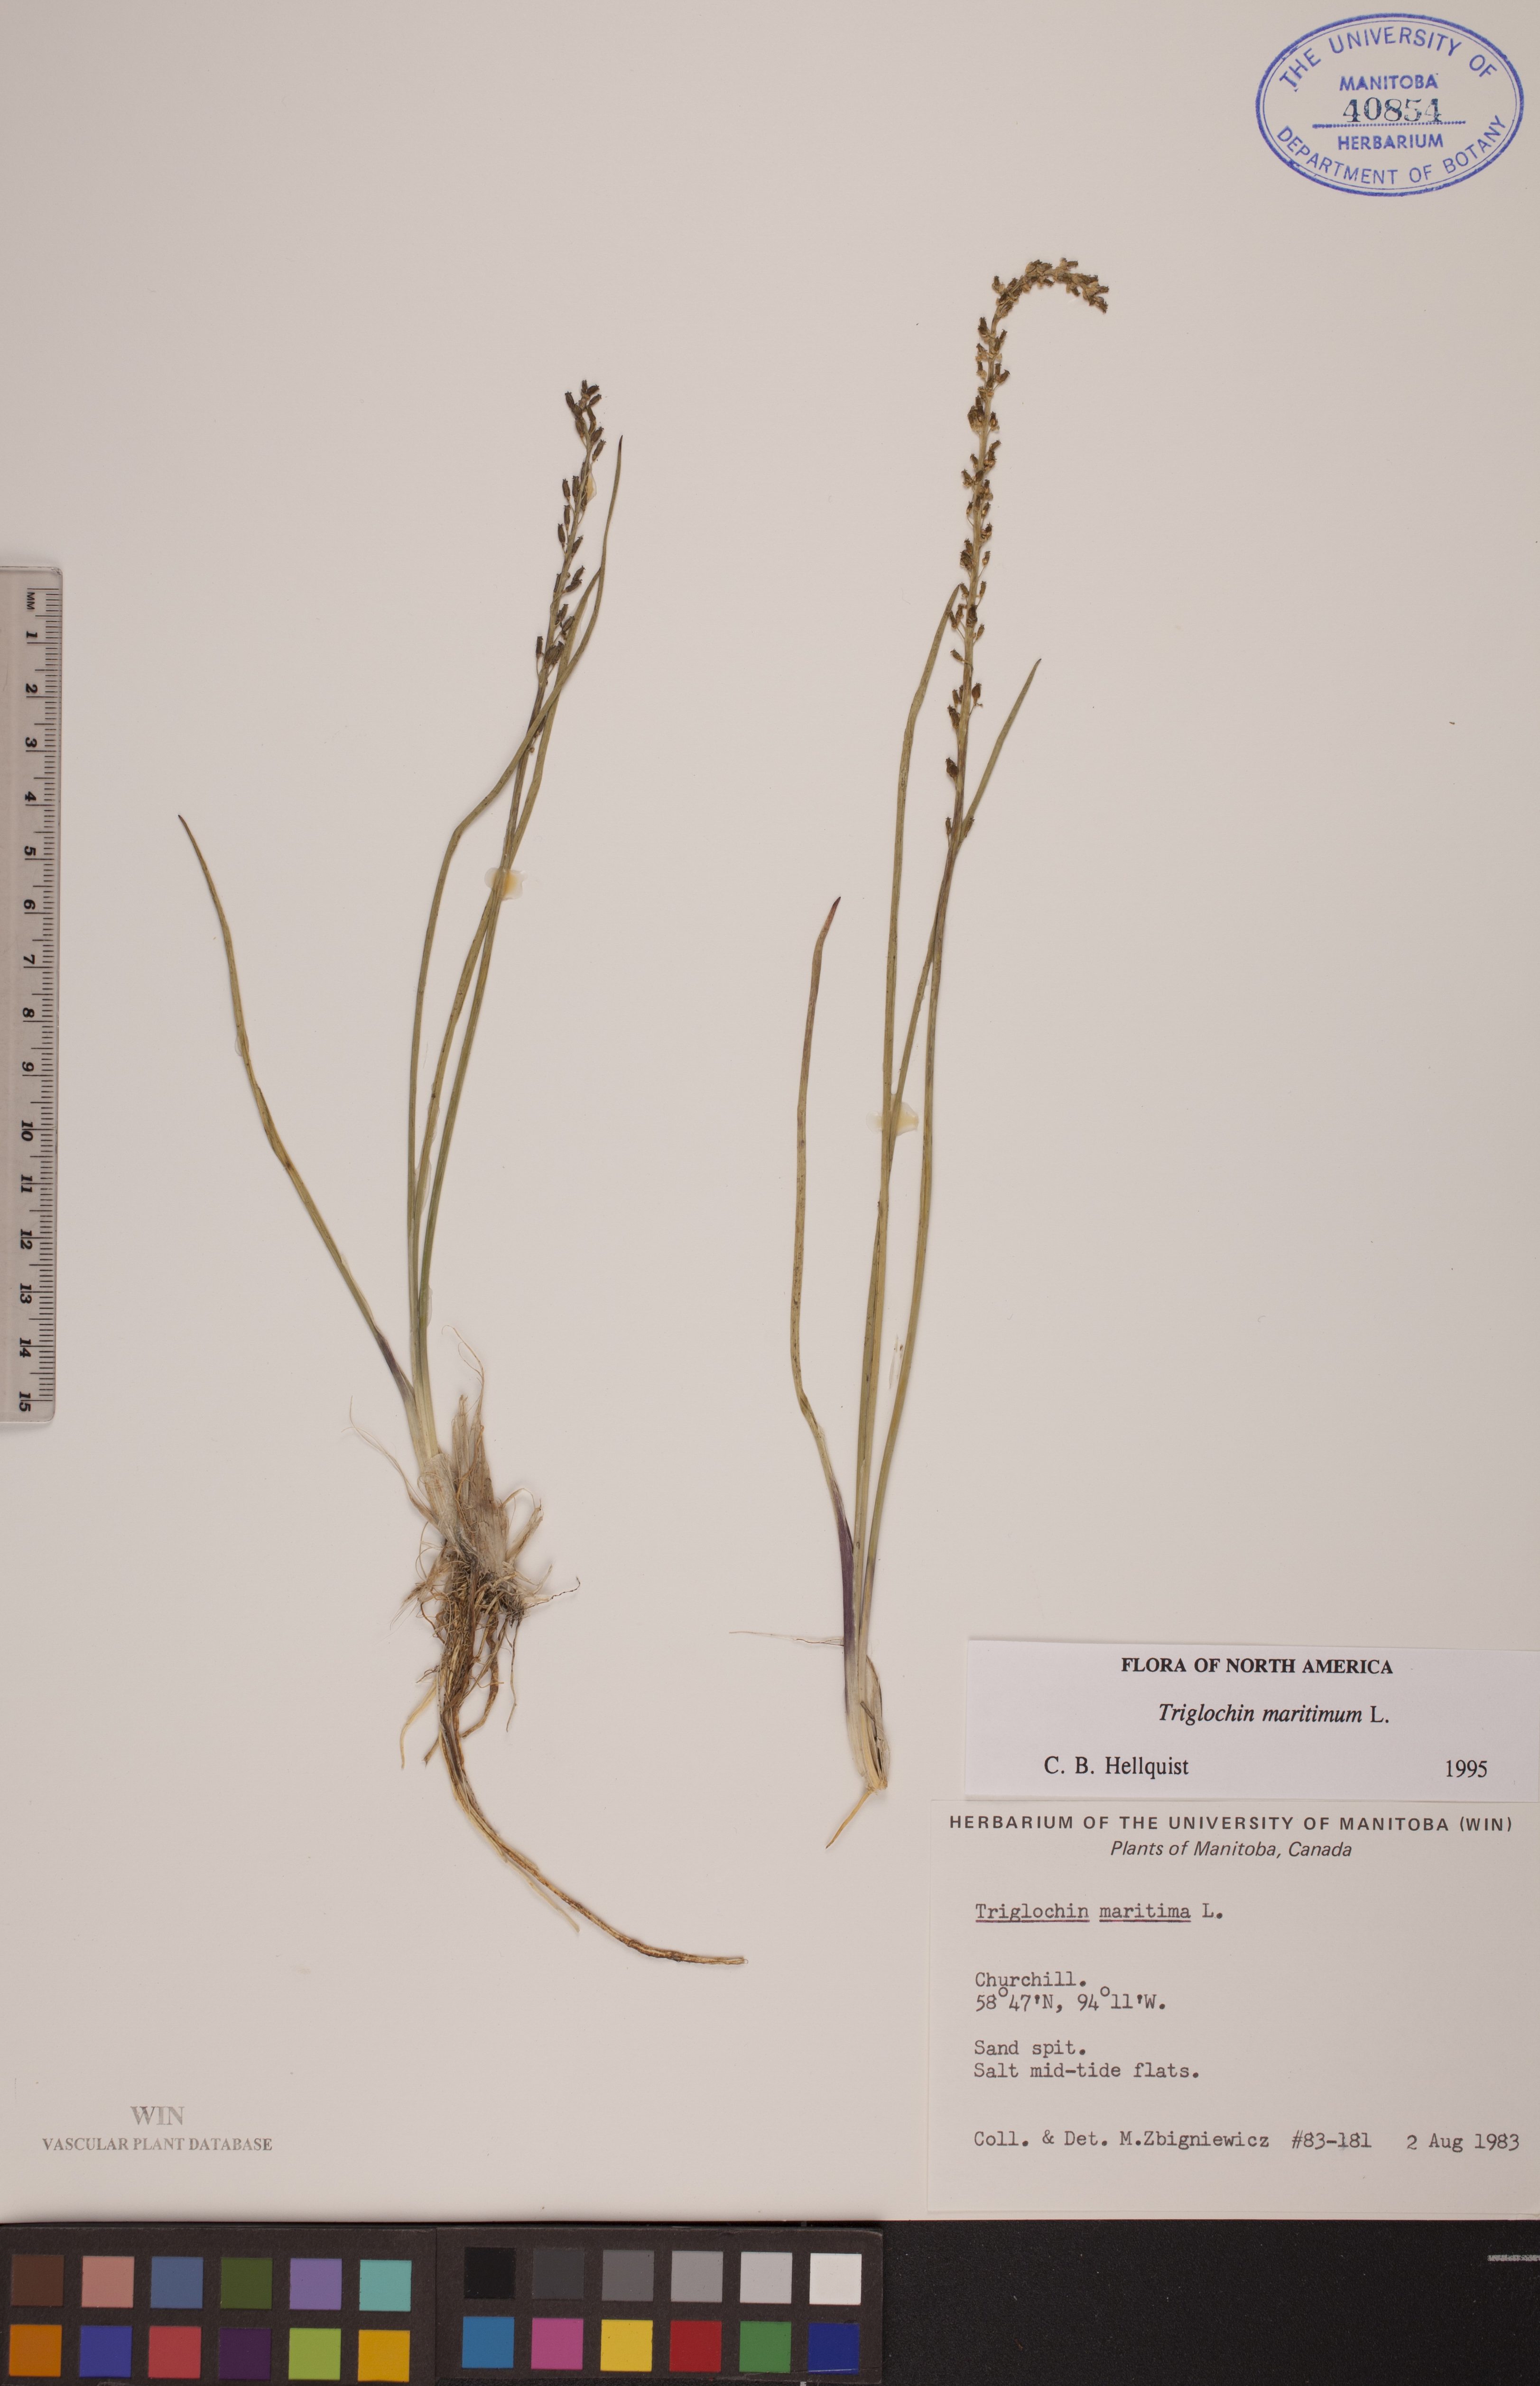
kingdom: Plantae
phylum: Tracheophyta
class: Liliopsida
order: Alismatales
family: Juncaginaceae
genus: Triglochin
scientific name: Triglochin maritima
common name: Sea arrowgrass
